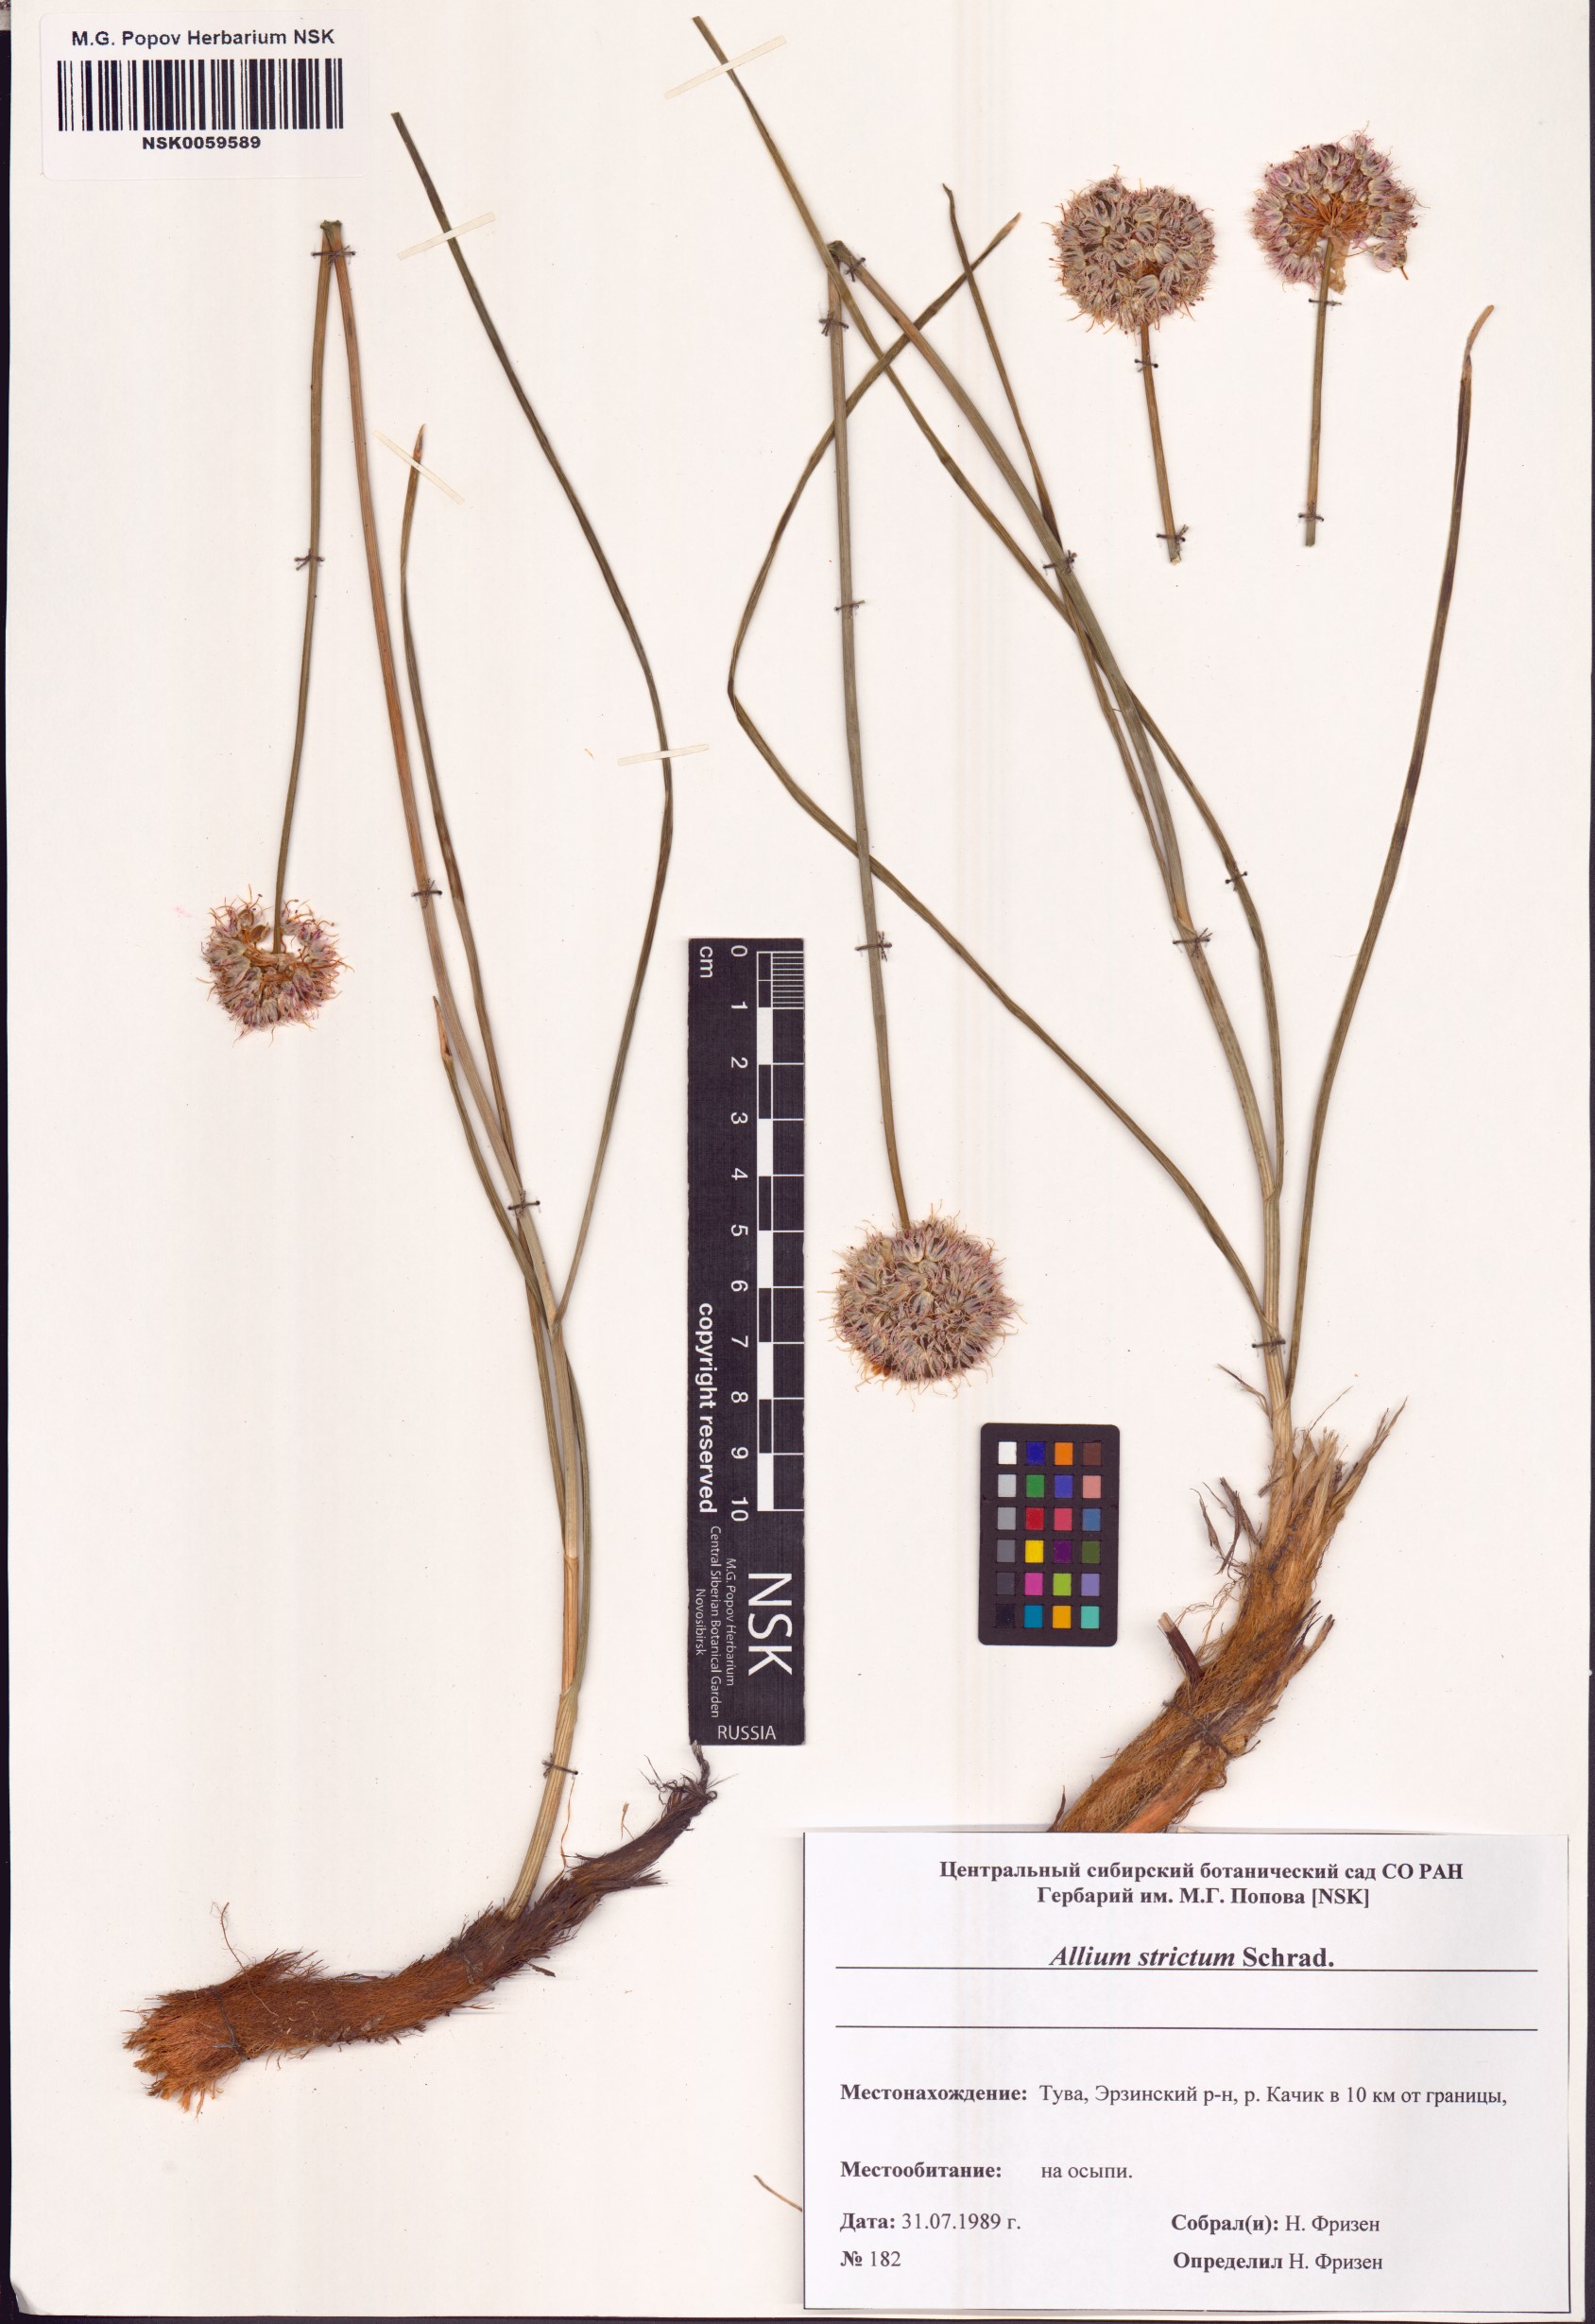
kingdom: Plantae
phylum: Tracheophyta
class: Liliopsida
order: Asparagales
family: Amaryllidaceae
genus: Allium
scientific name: Allium strictum
